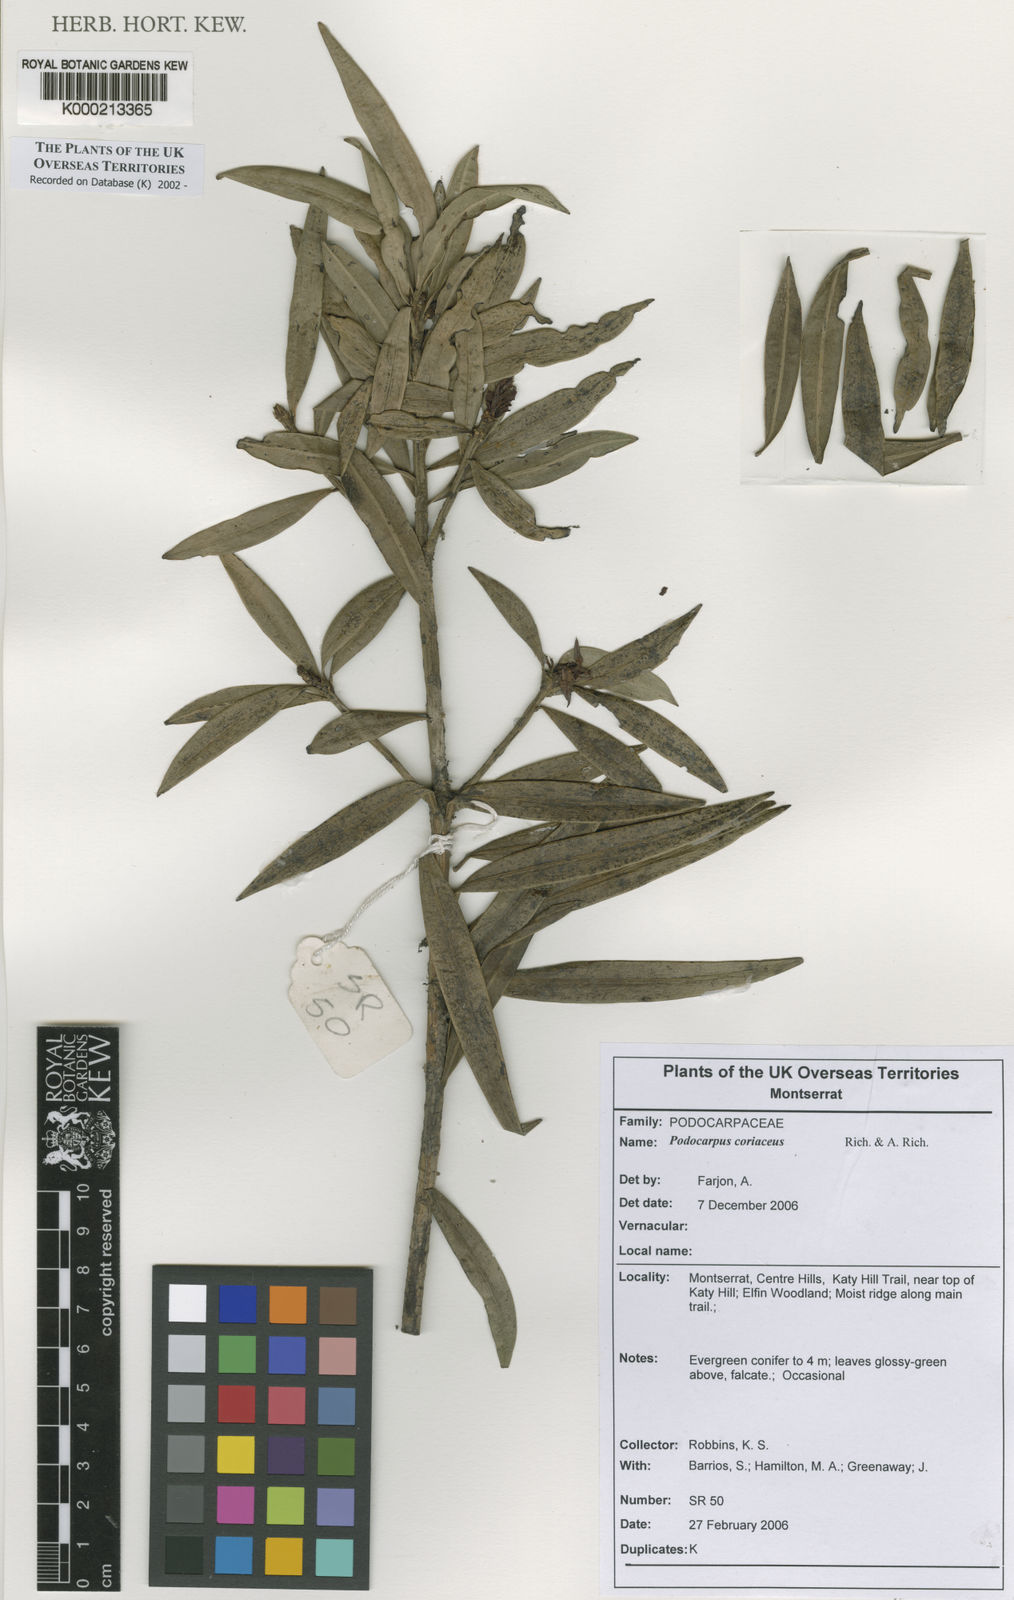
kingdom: Plantae
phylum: Tracheophyta
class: Pinopsida
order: Pinales
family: Podocarpaceae
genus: Podocarpus
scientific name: Podocarpus coriaceus
